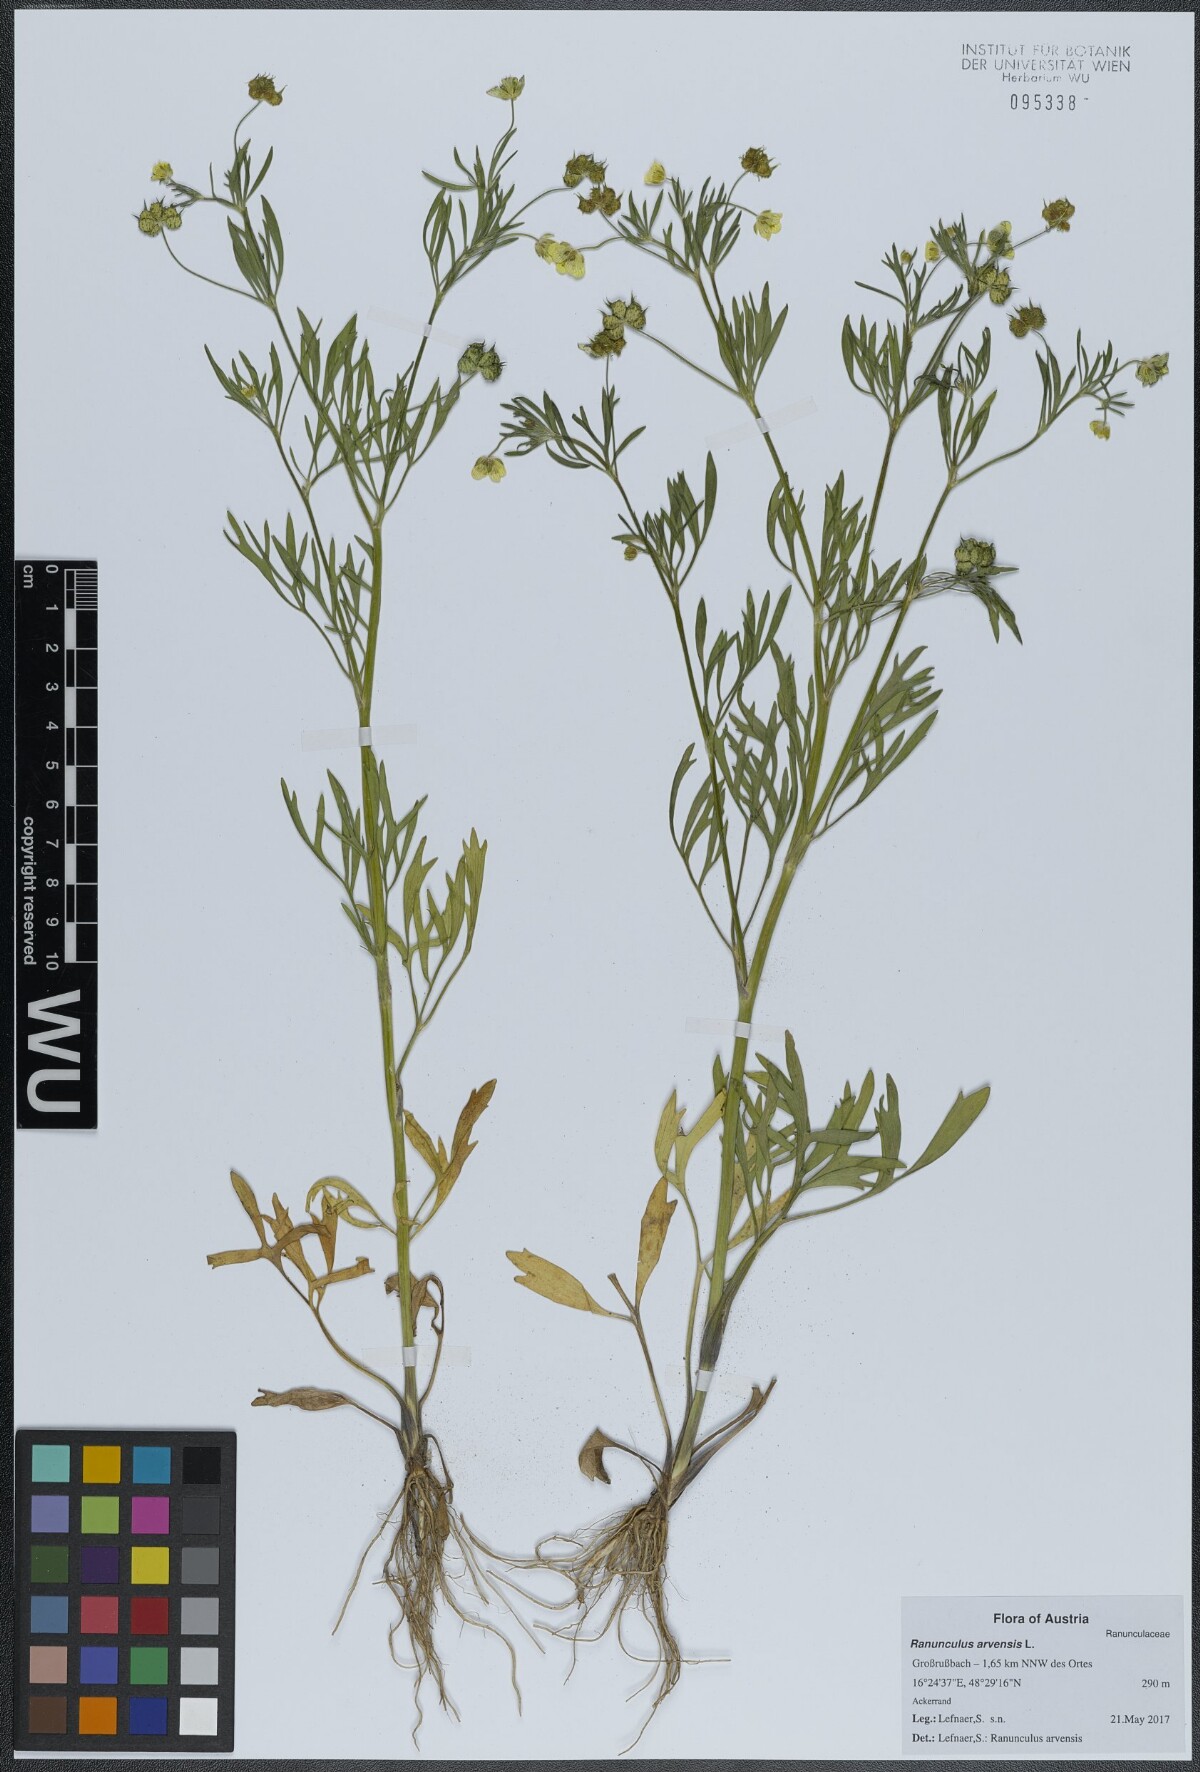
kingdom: Plantae
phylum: Tracheophyta
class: Magnoliopsida
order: Ranunculales
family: Ranunculaceae
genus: Ranunculus
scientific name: Ranunculus arvensis
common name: Corn buttercup
